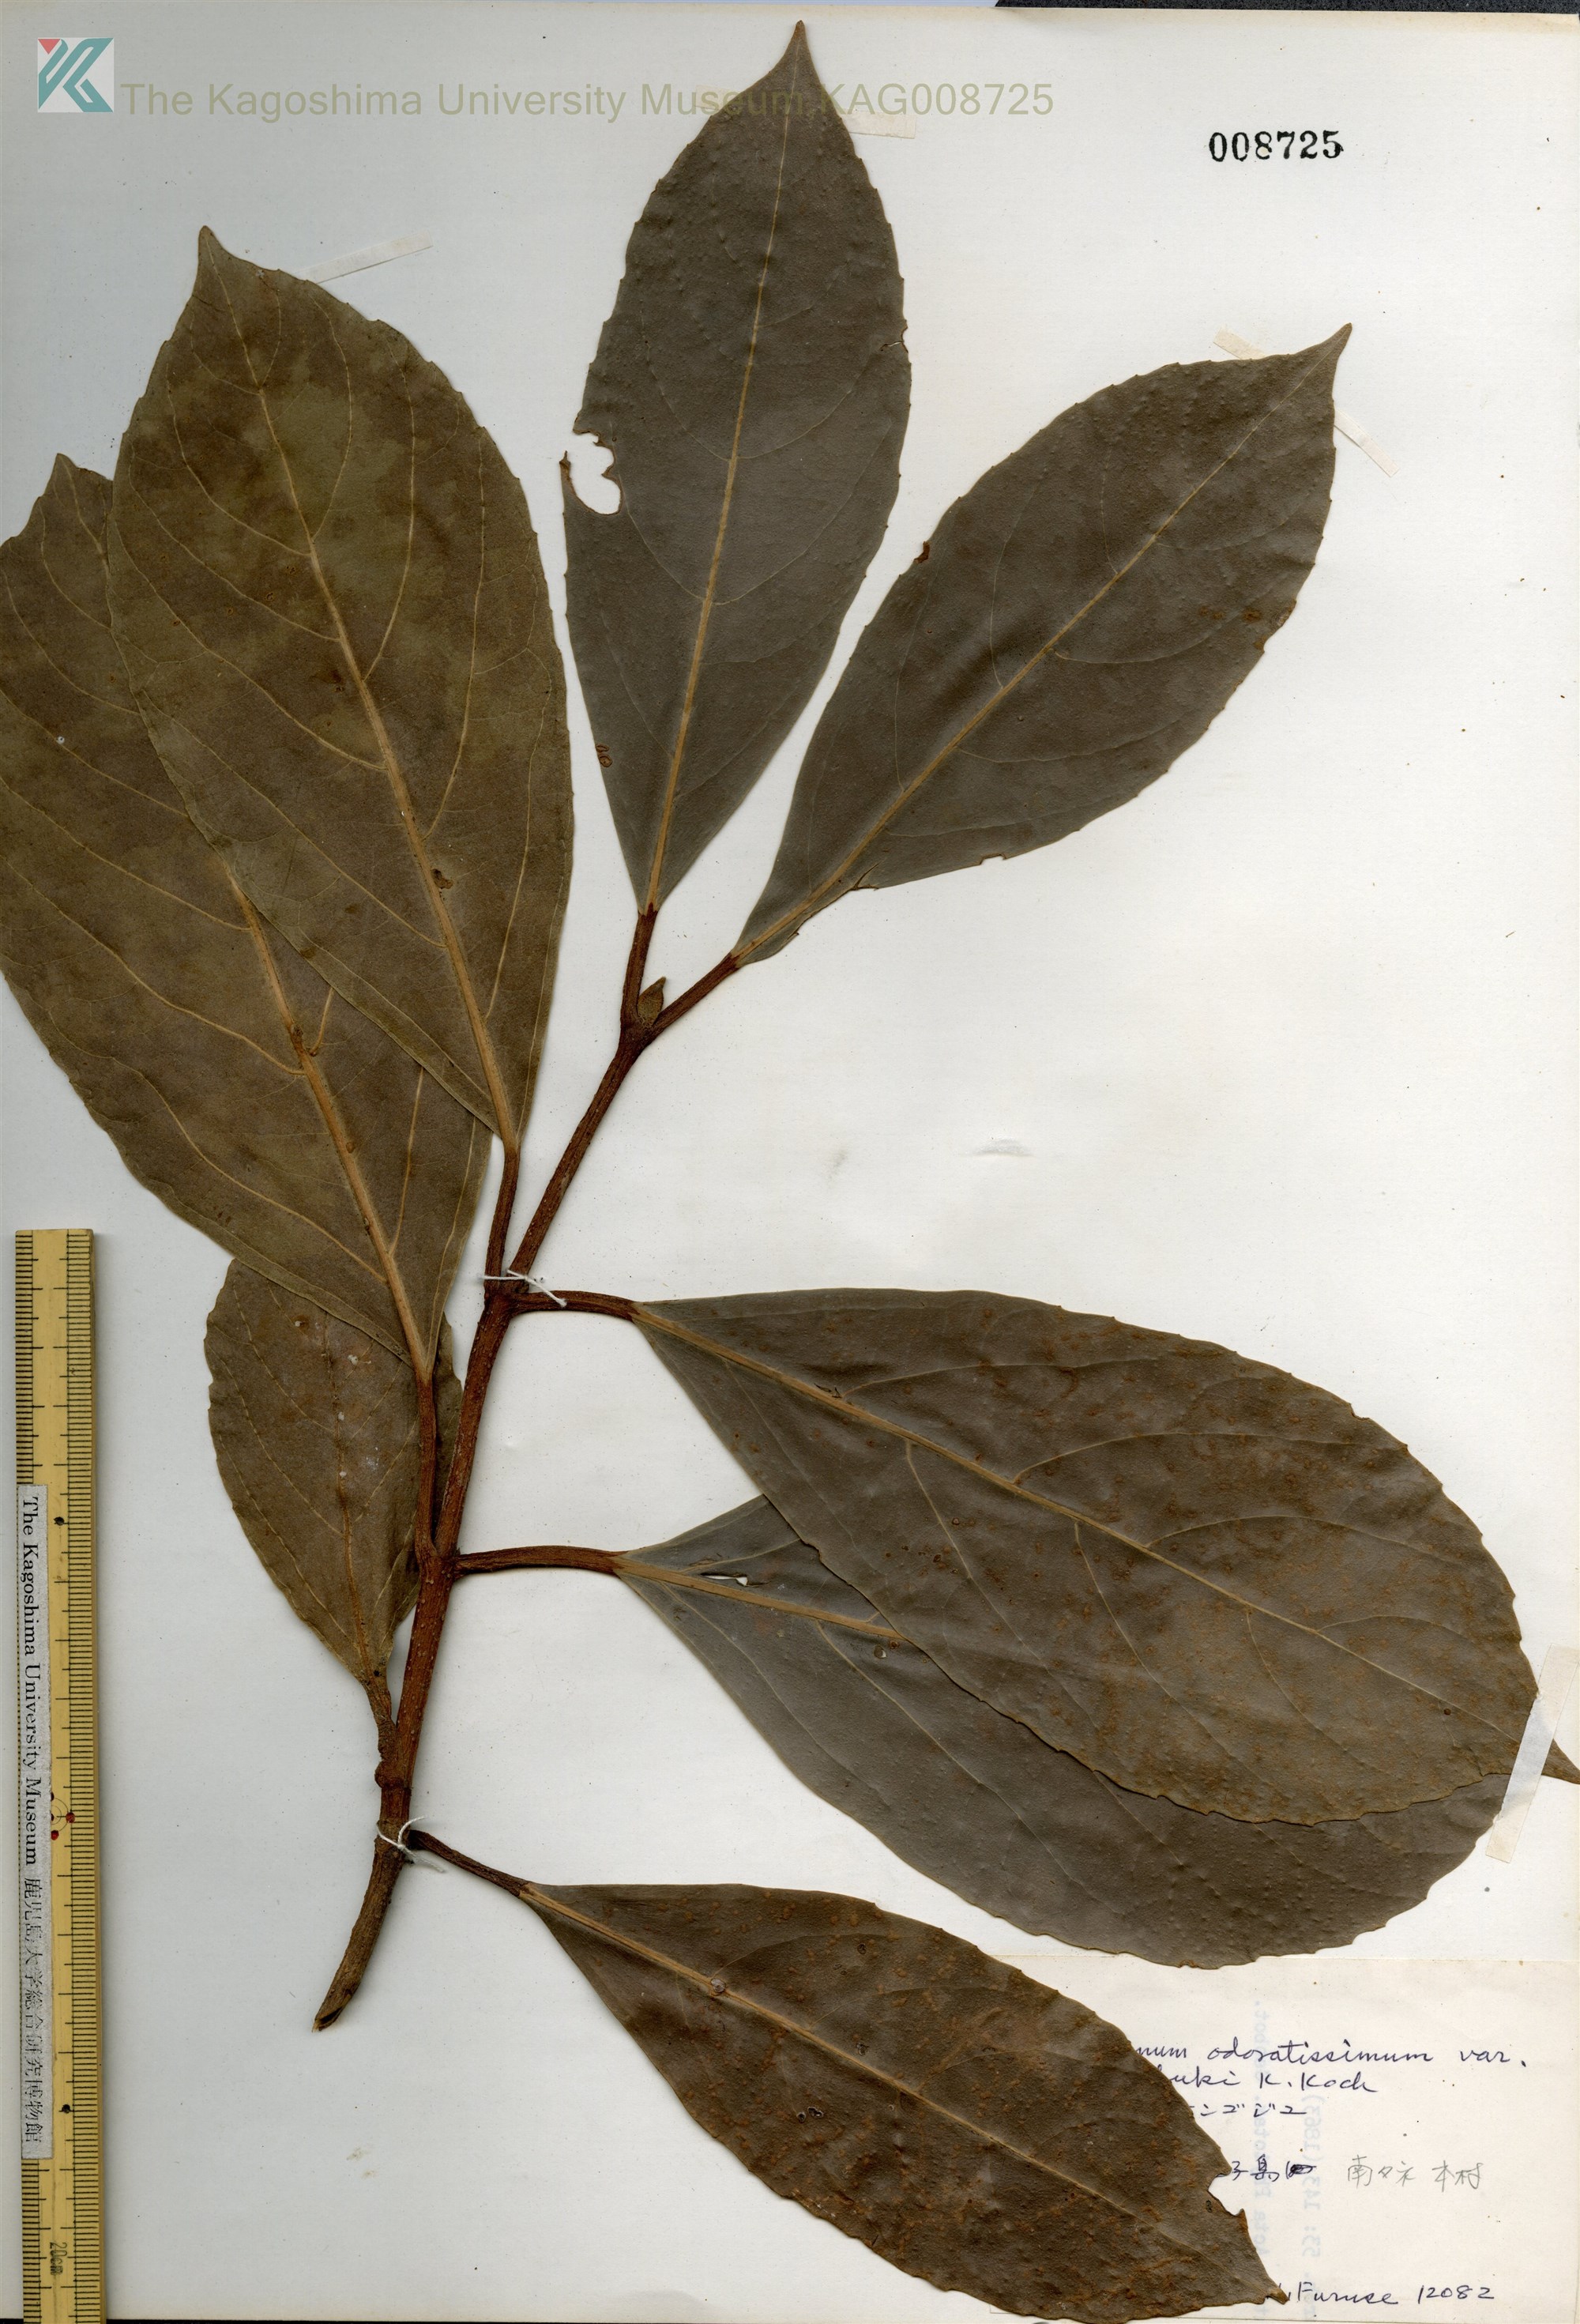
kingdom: Plantae
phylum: Tracheophyta
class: Magnoliopsida
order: Dipsacales
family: Viburnaceae
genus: Viburnum
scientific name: Viburnum odoratissimum
